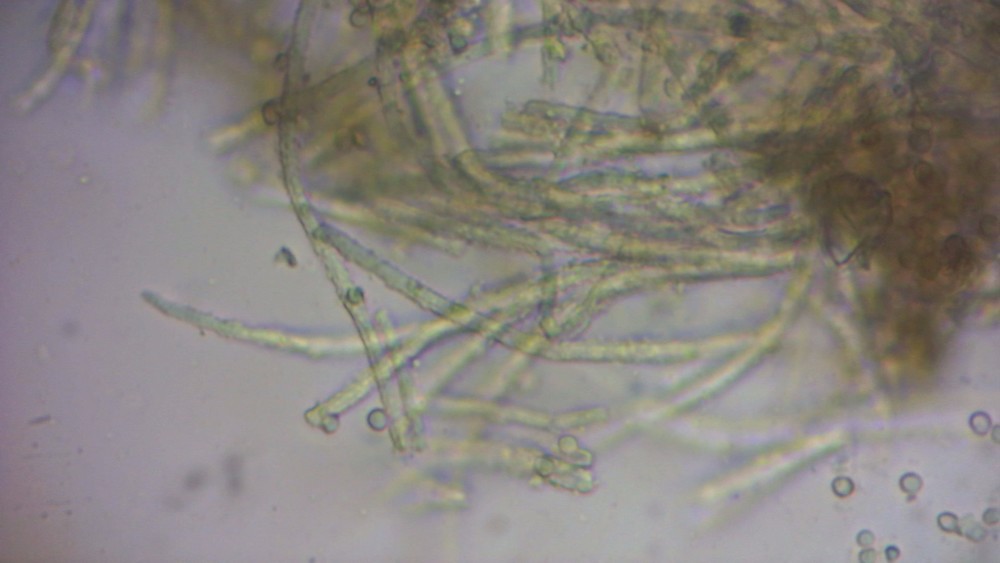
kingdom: Fungi
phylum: Ascomycota
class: Leotiomycetes
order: Helotiales
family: Lachnaceae
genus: Lachnellula
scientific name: Lachnellula calycina
